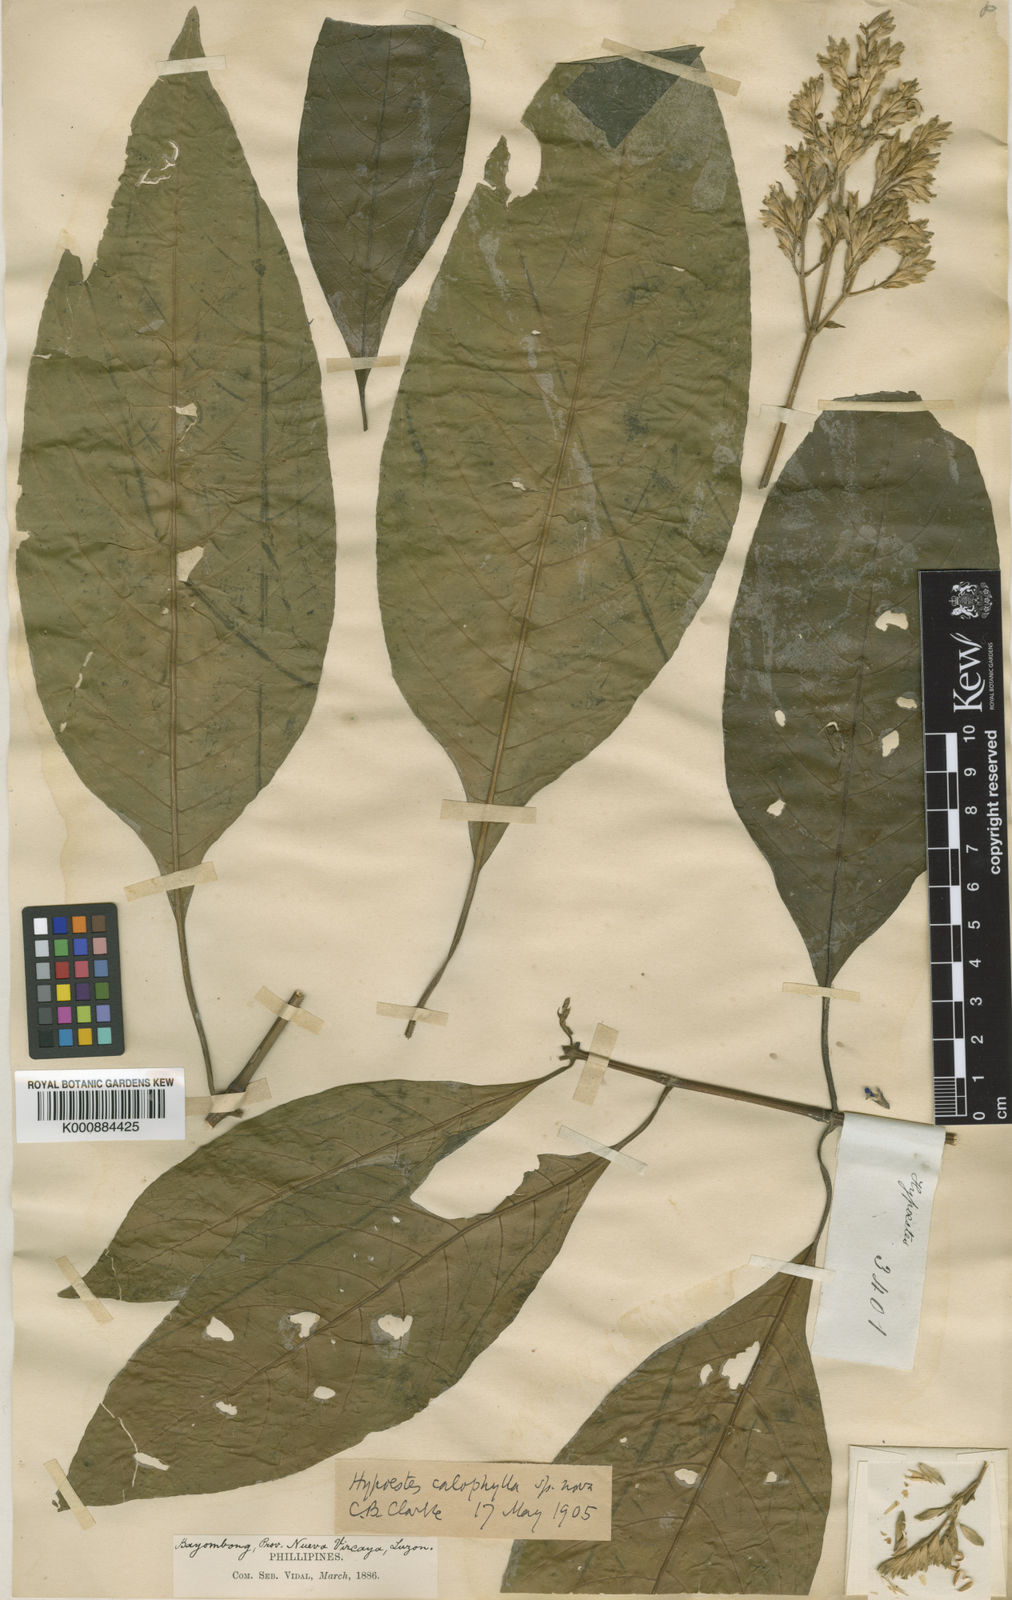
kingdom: Plantae
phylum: Tracheophyta
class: Magnoliopsida
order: Lamiales
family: Acanthaceae
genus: Hypoestes
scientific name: Hypoestes triflora
